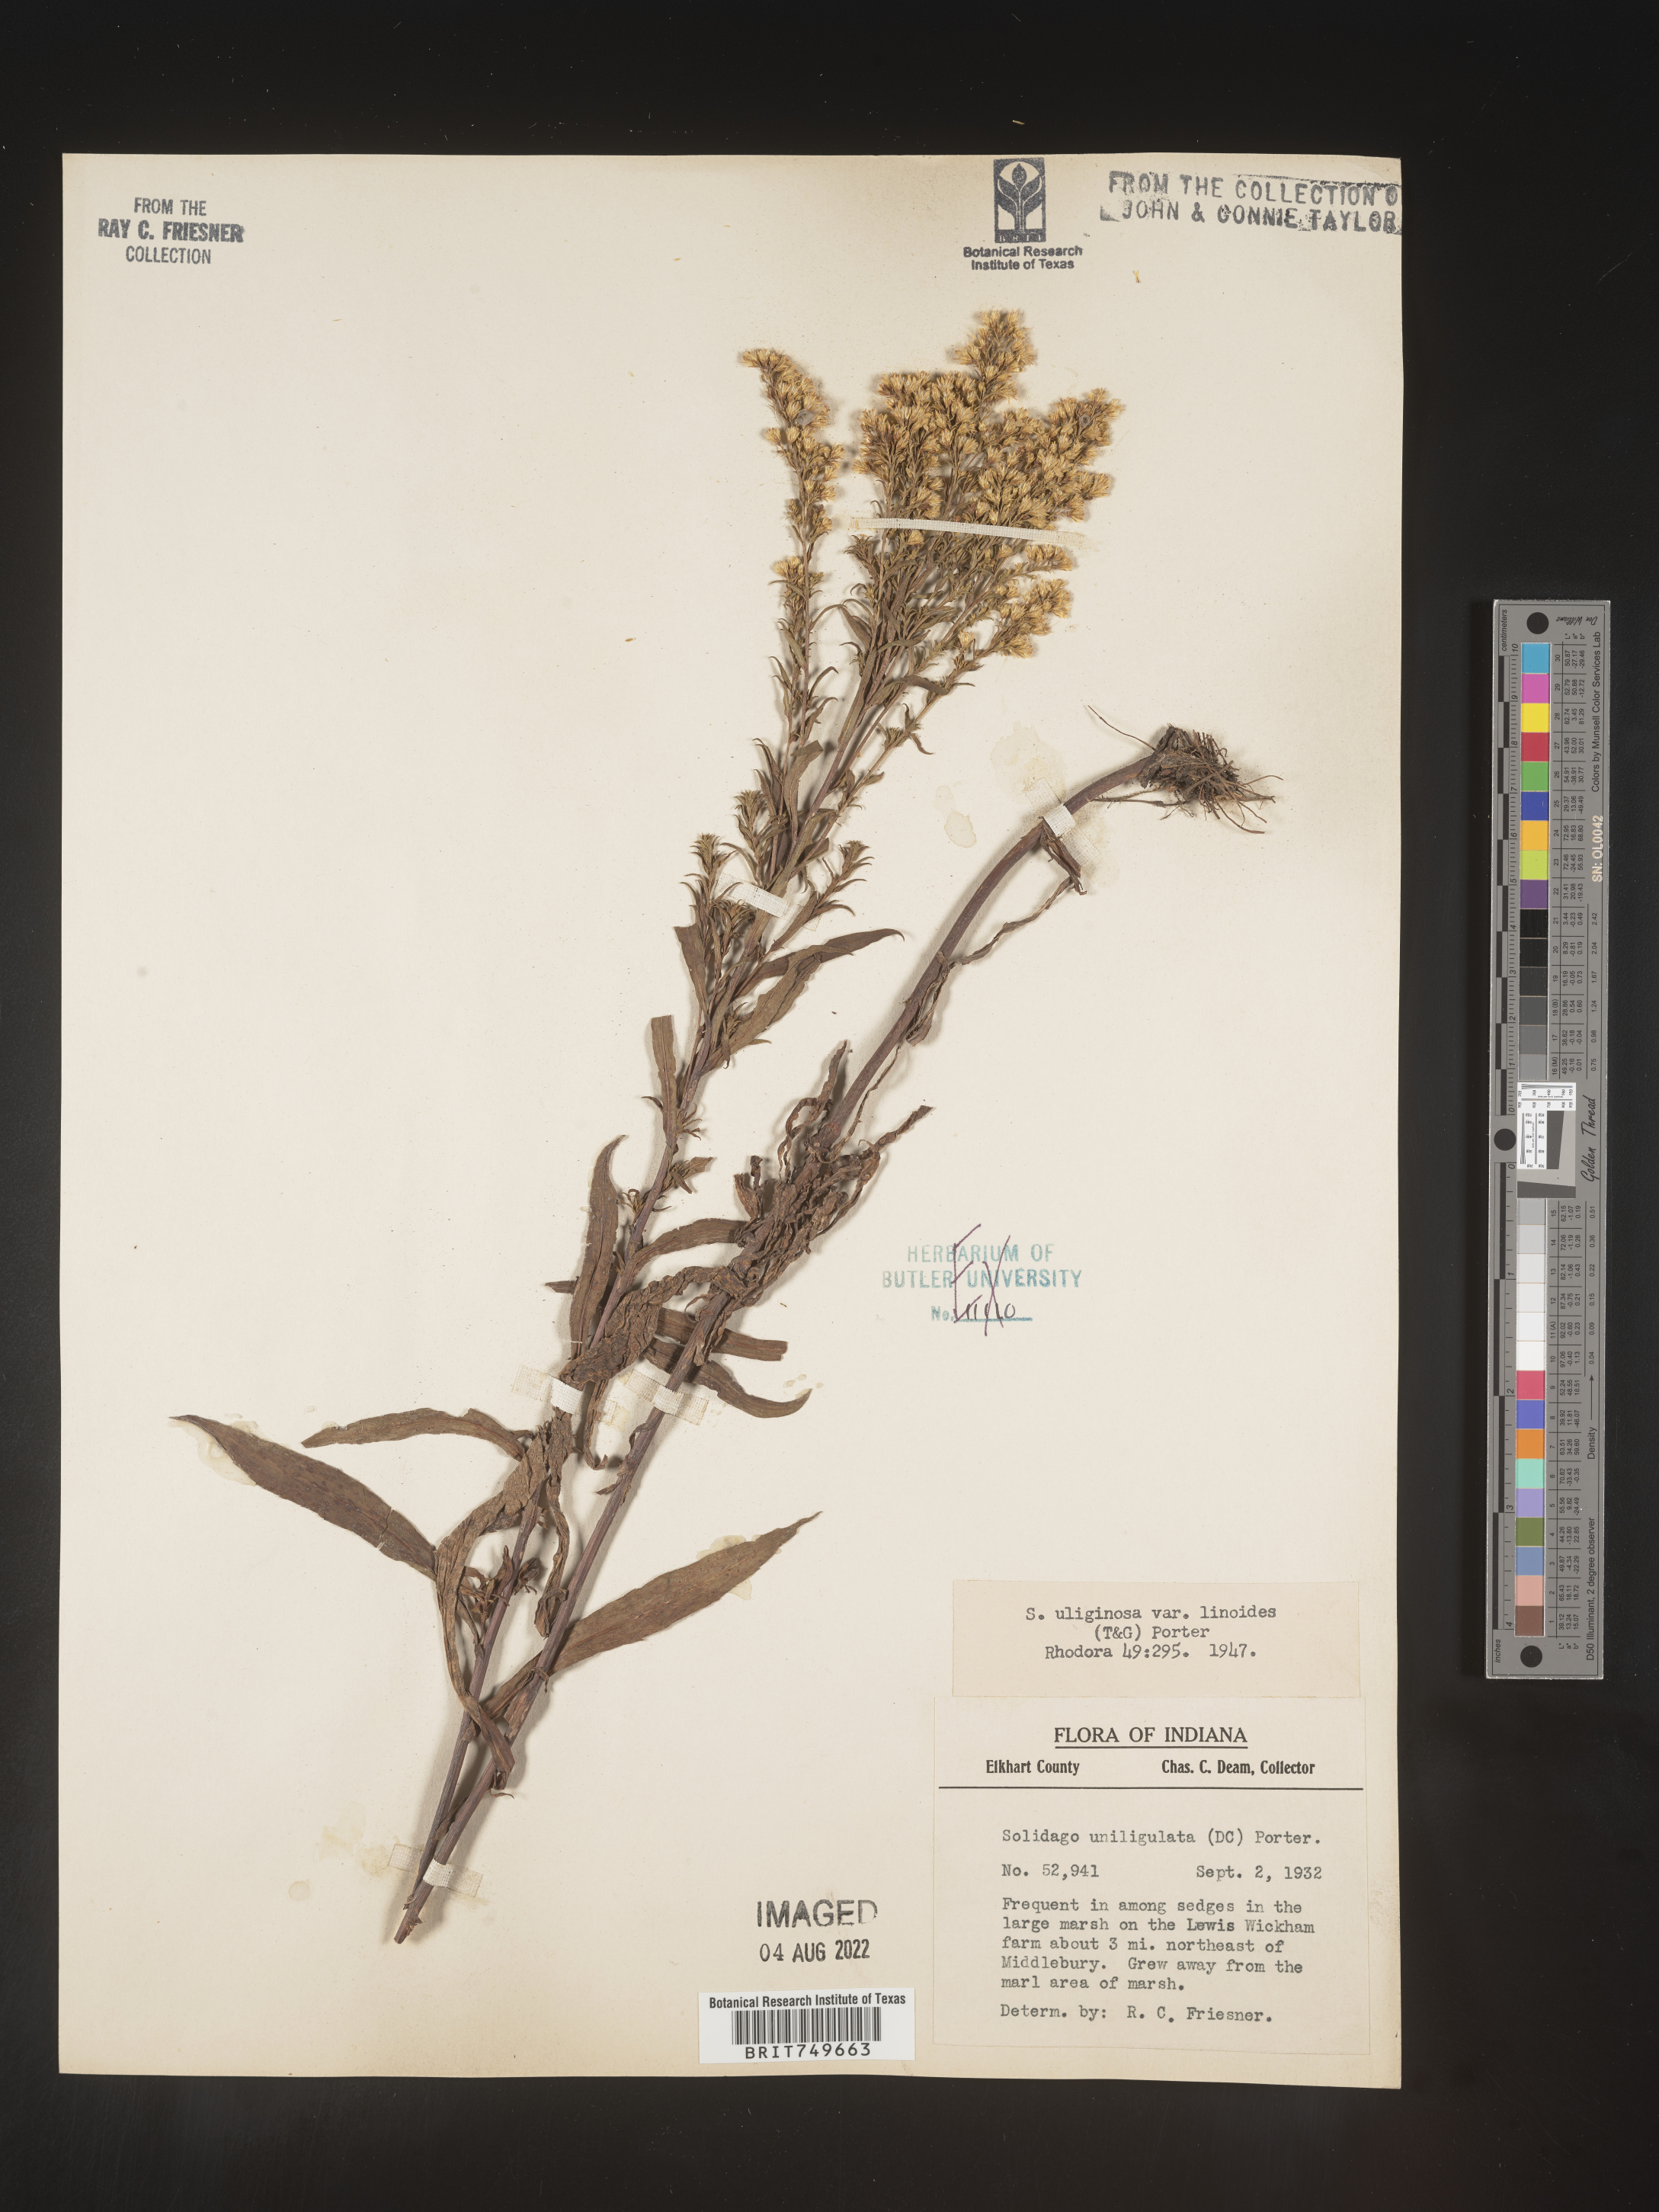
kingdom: Plantae
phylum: Tracheophyta
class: Magnoliopsida
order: Asterales
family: Asteraceae
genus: Solidago
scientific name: Solidago uliginosa
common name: Bog goldenrod
